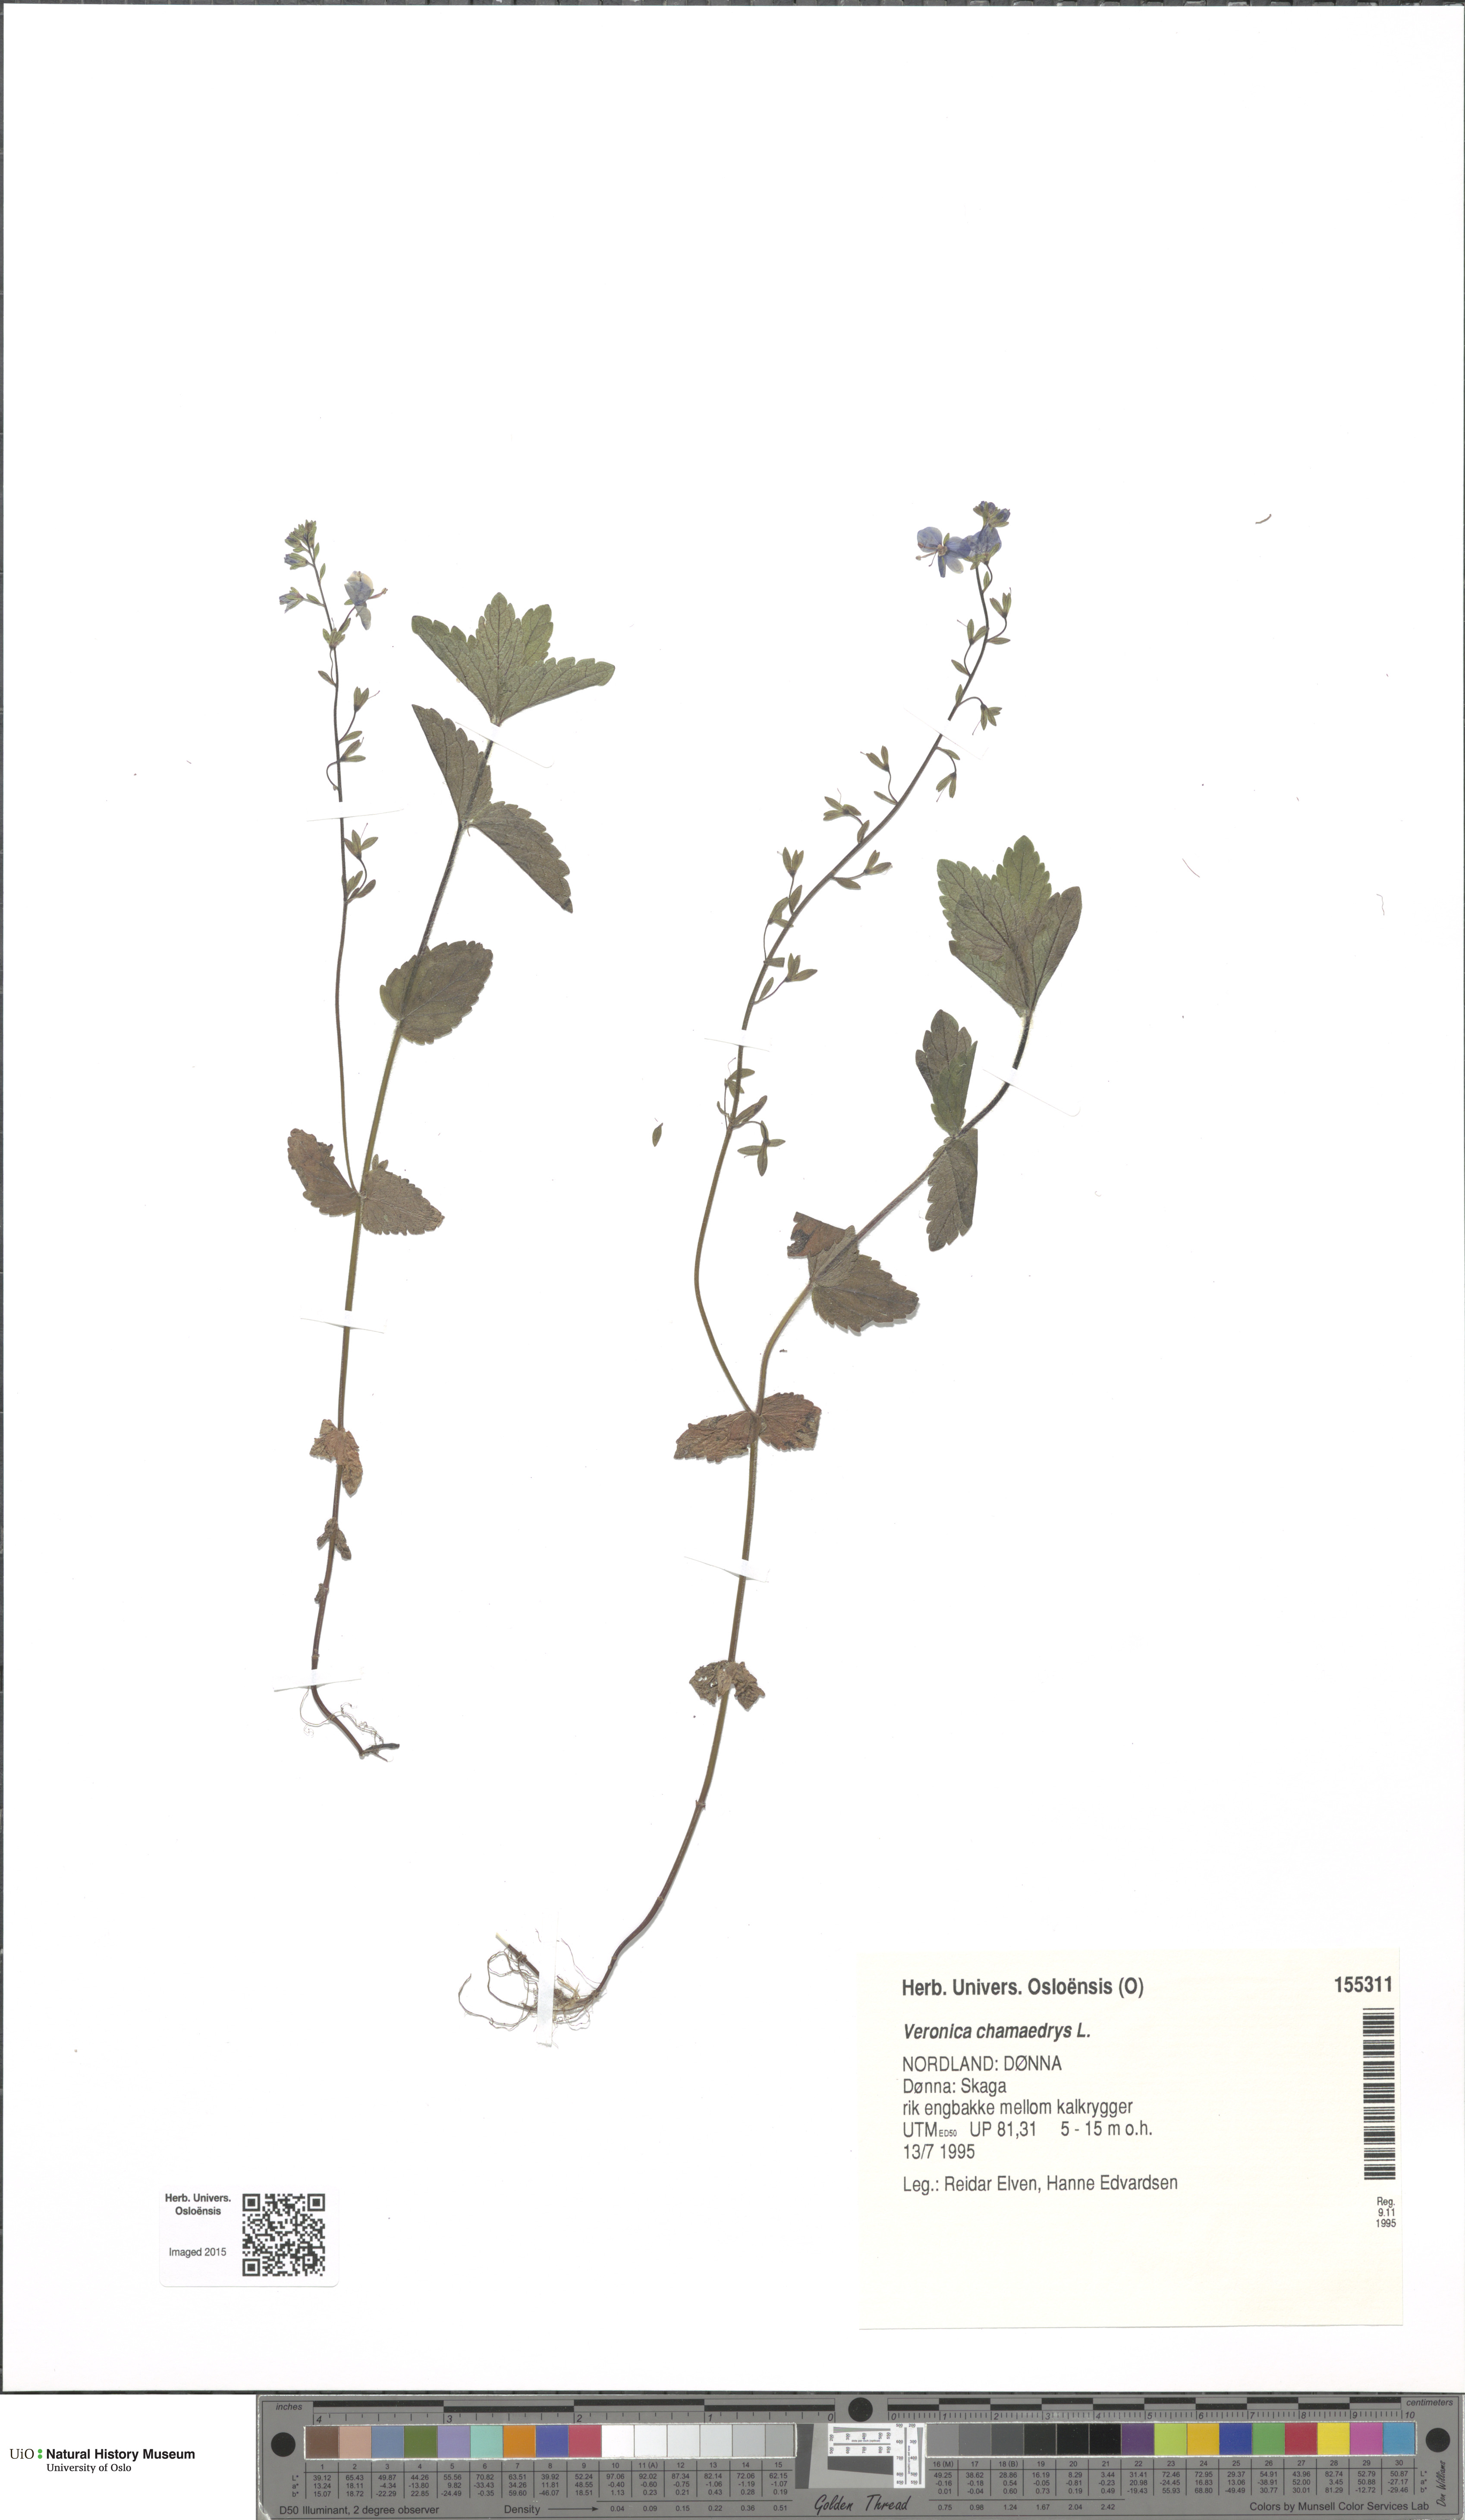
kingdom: Plantae
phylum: Tracheophyta
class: Magnoliopsida
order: Lamiales
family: Plantaginaceae
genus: Veronica
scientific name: Veronica chamaedrys
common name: Germander speedwell
